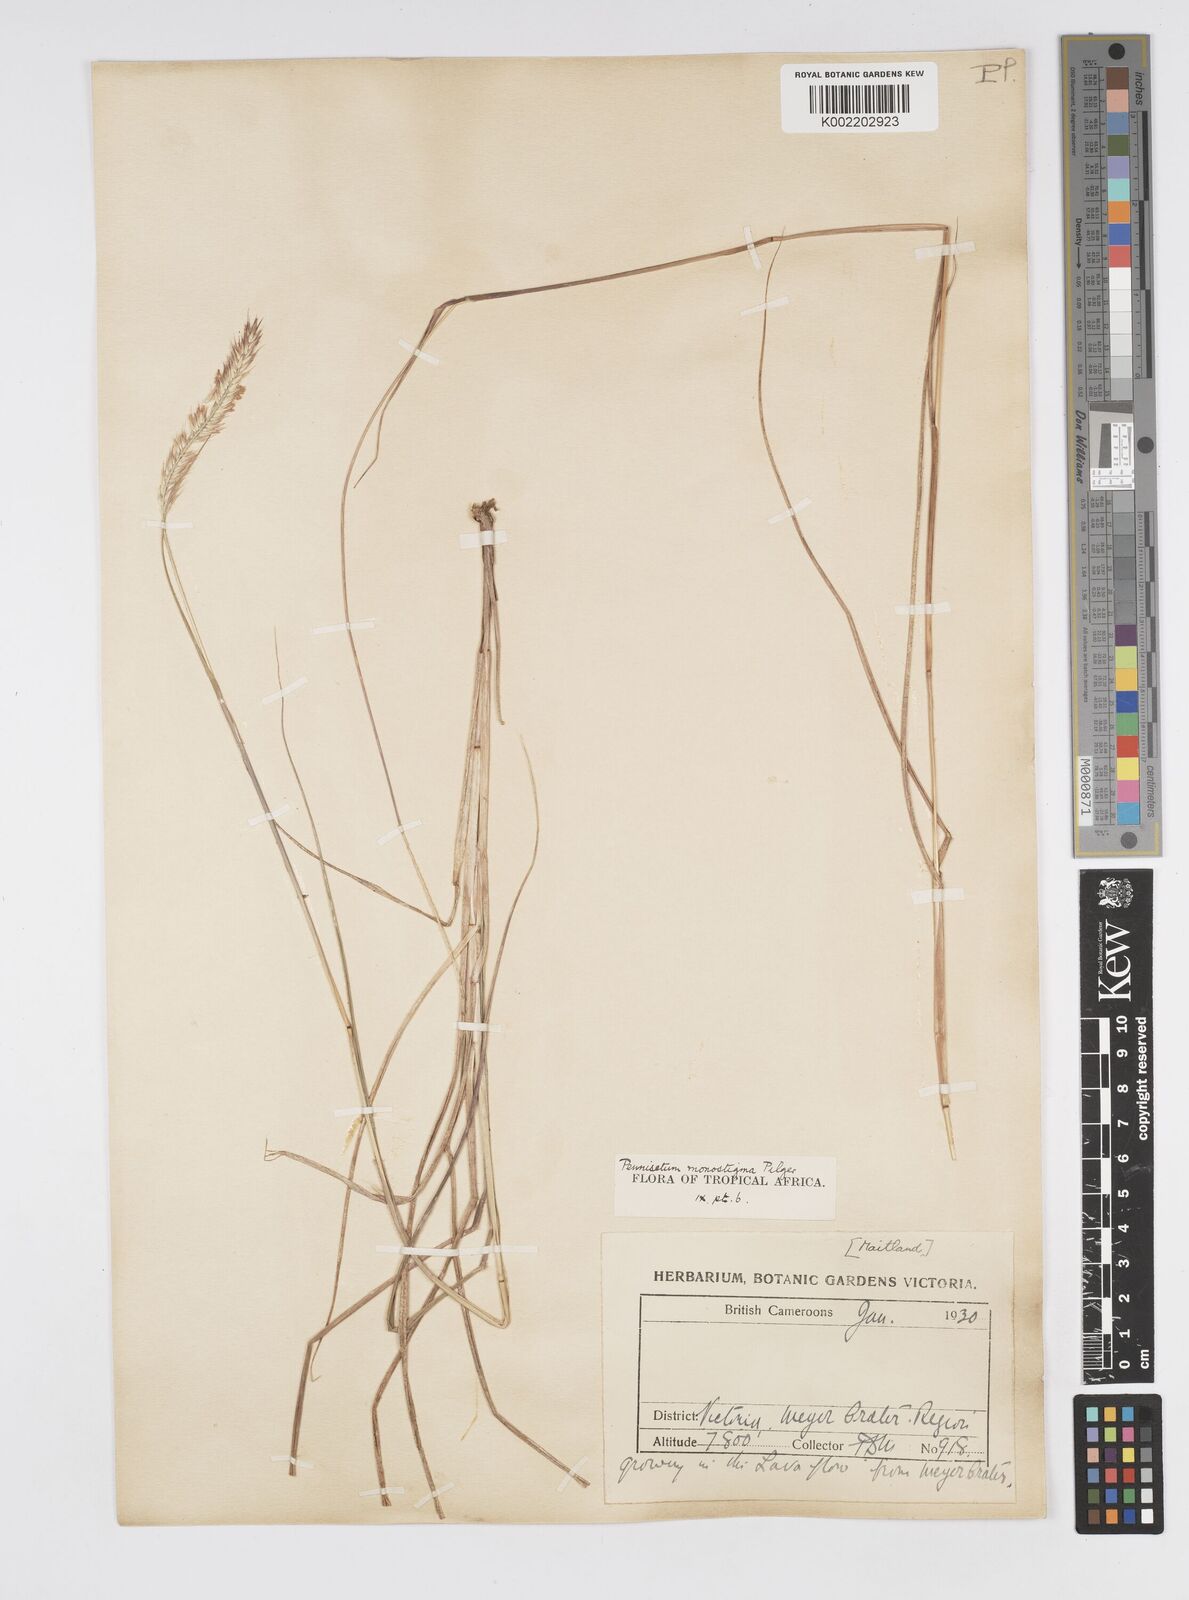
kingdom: Plantae
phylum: Tracheophyta
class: Liliopsida
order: Poales
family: Poaceae
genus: Cenchrus
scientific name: Cenchrus monostigma
